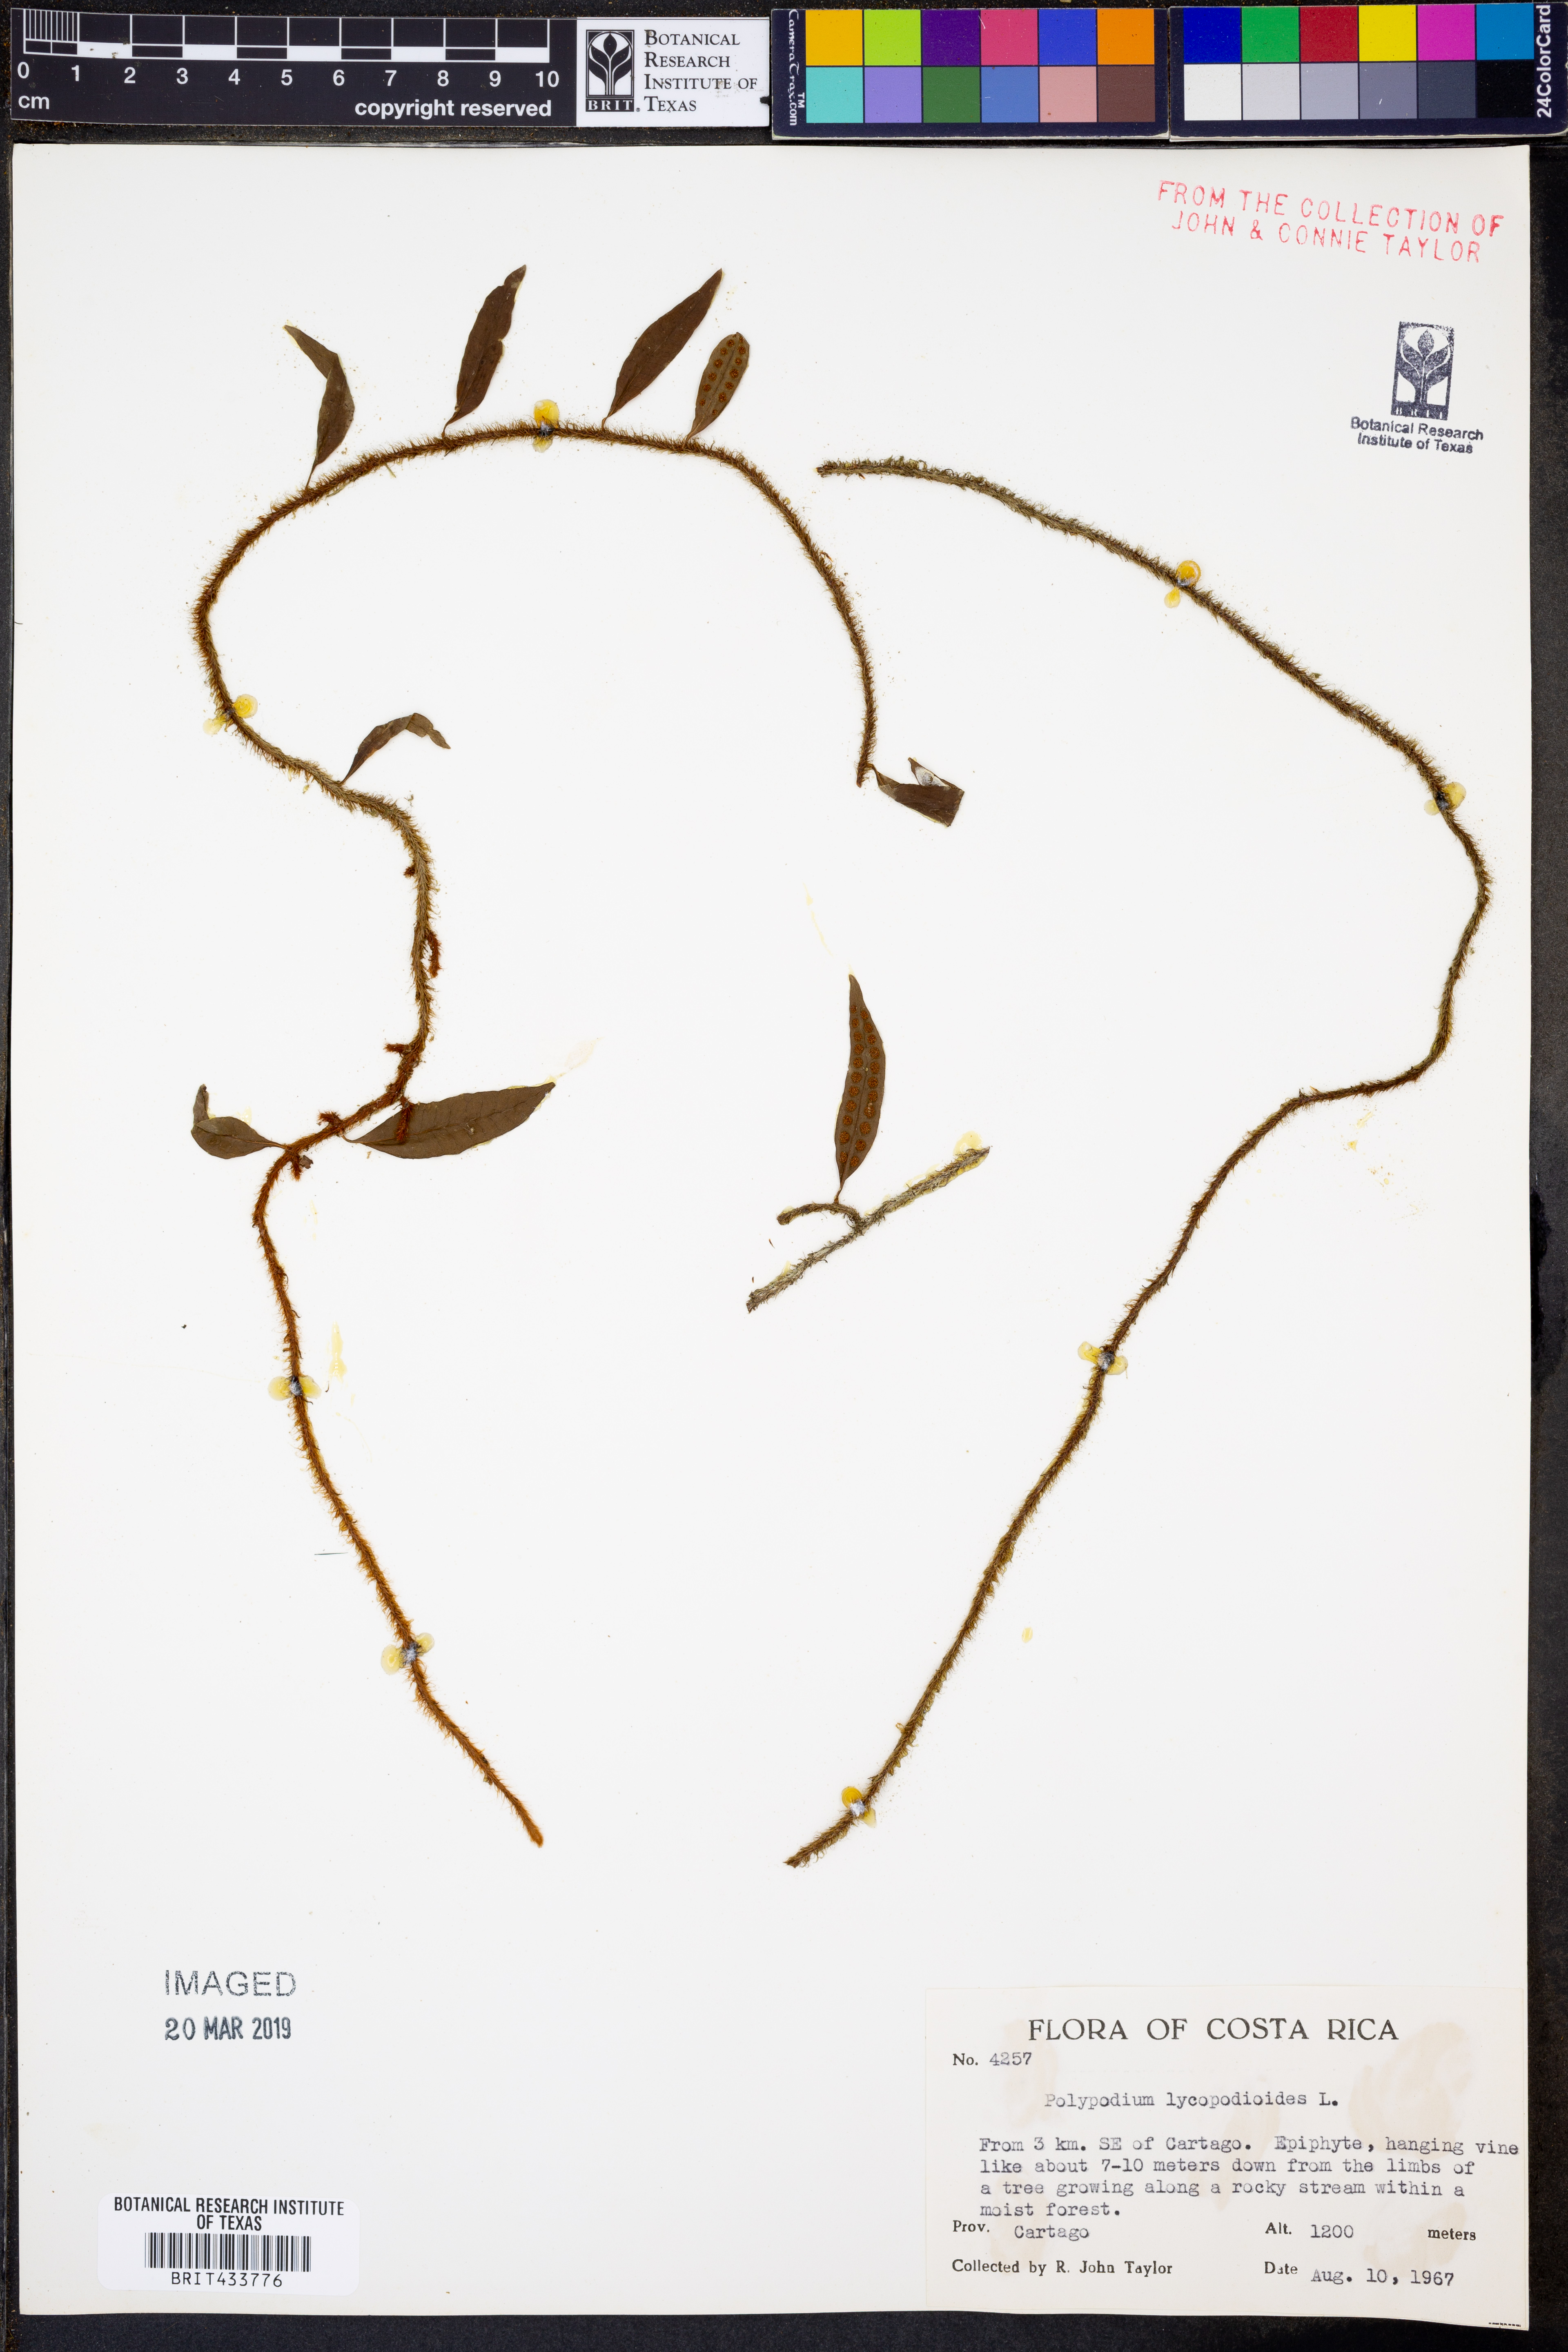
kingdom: Plantae
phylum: Tracheophyta
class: Polypodiopsida
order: Polypodiales
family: Polypodiaceae
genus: Microgramma
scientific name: Microgramma lycopodioides
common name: Bastard catclaw
